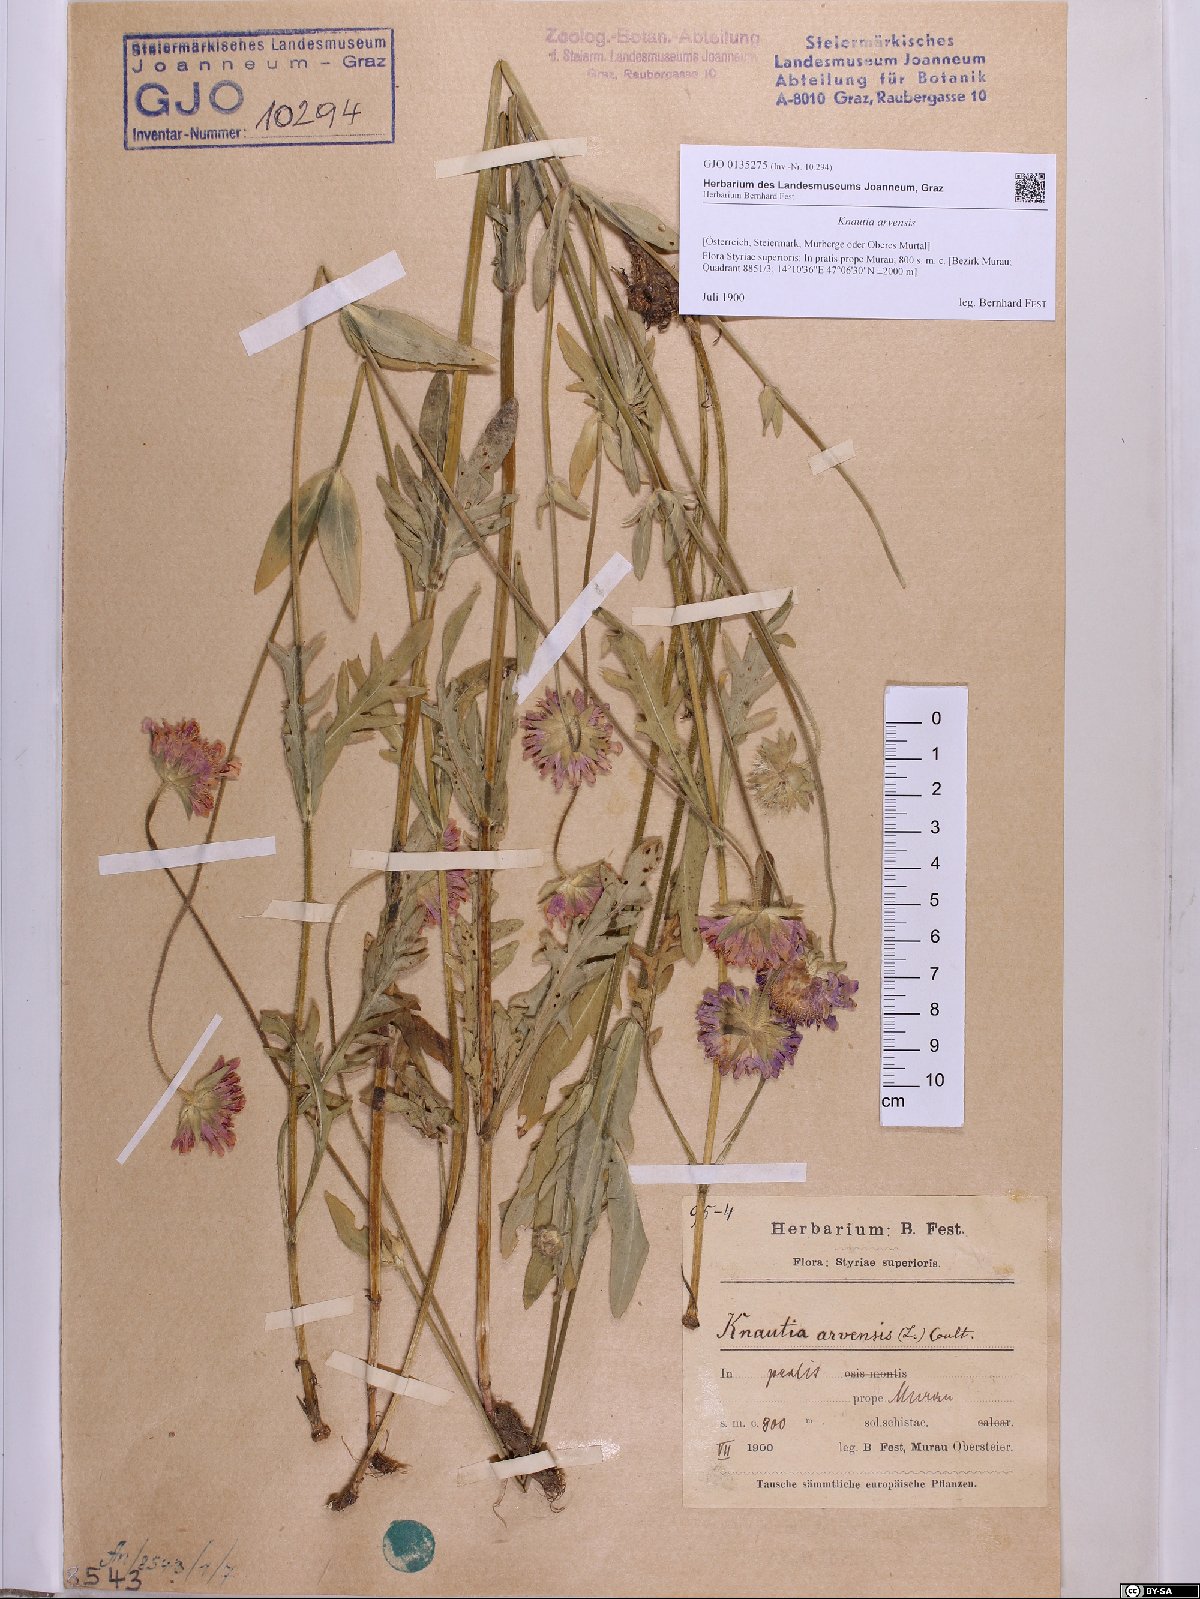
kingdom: Plantae
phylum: Tracheophyta
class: Magnoliopsida
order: Dipsacales
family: Caprifoliaceae
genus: Knautia
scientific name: Knautia arvensis
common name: Field scabiosa
